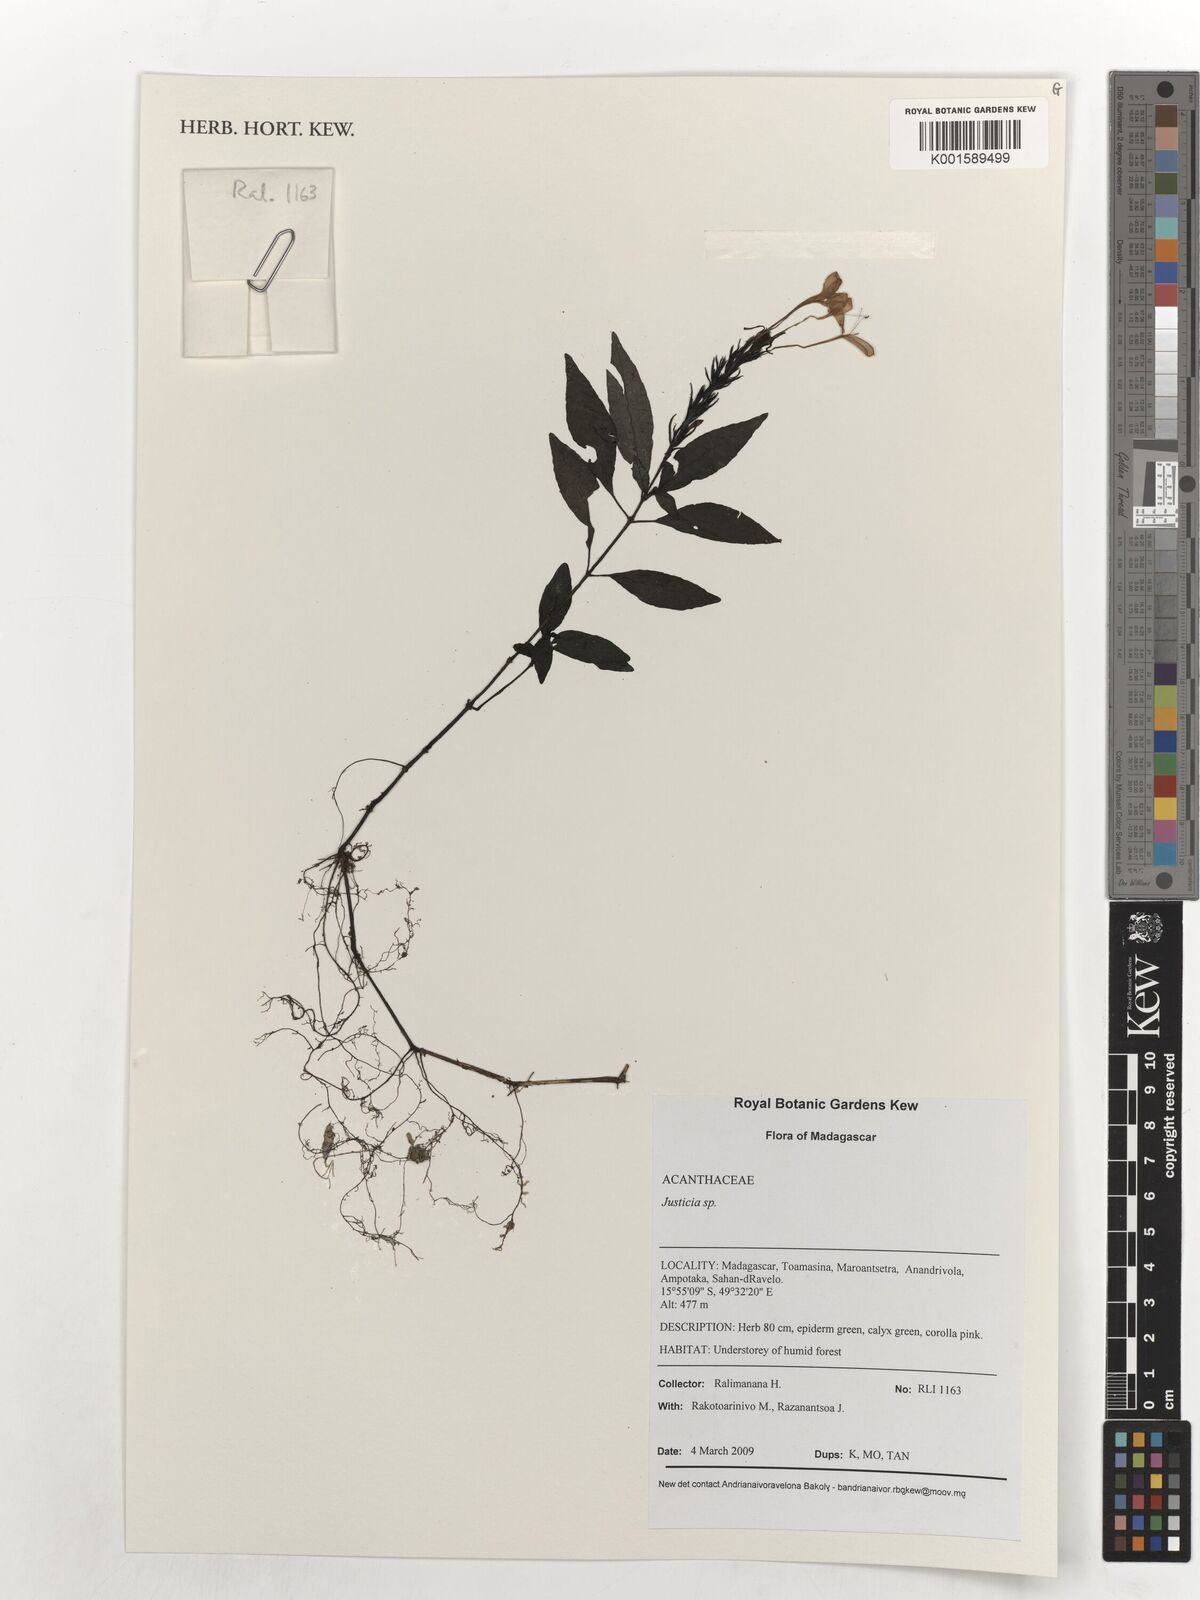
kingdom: Plantae
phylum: Tracheophyta
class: Magnoliopsida
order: Lamiales
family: Acanthaceae
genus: Justicia
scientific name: Justicia
